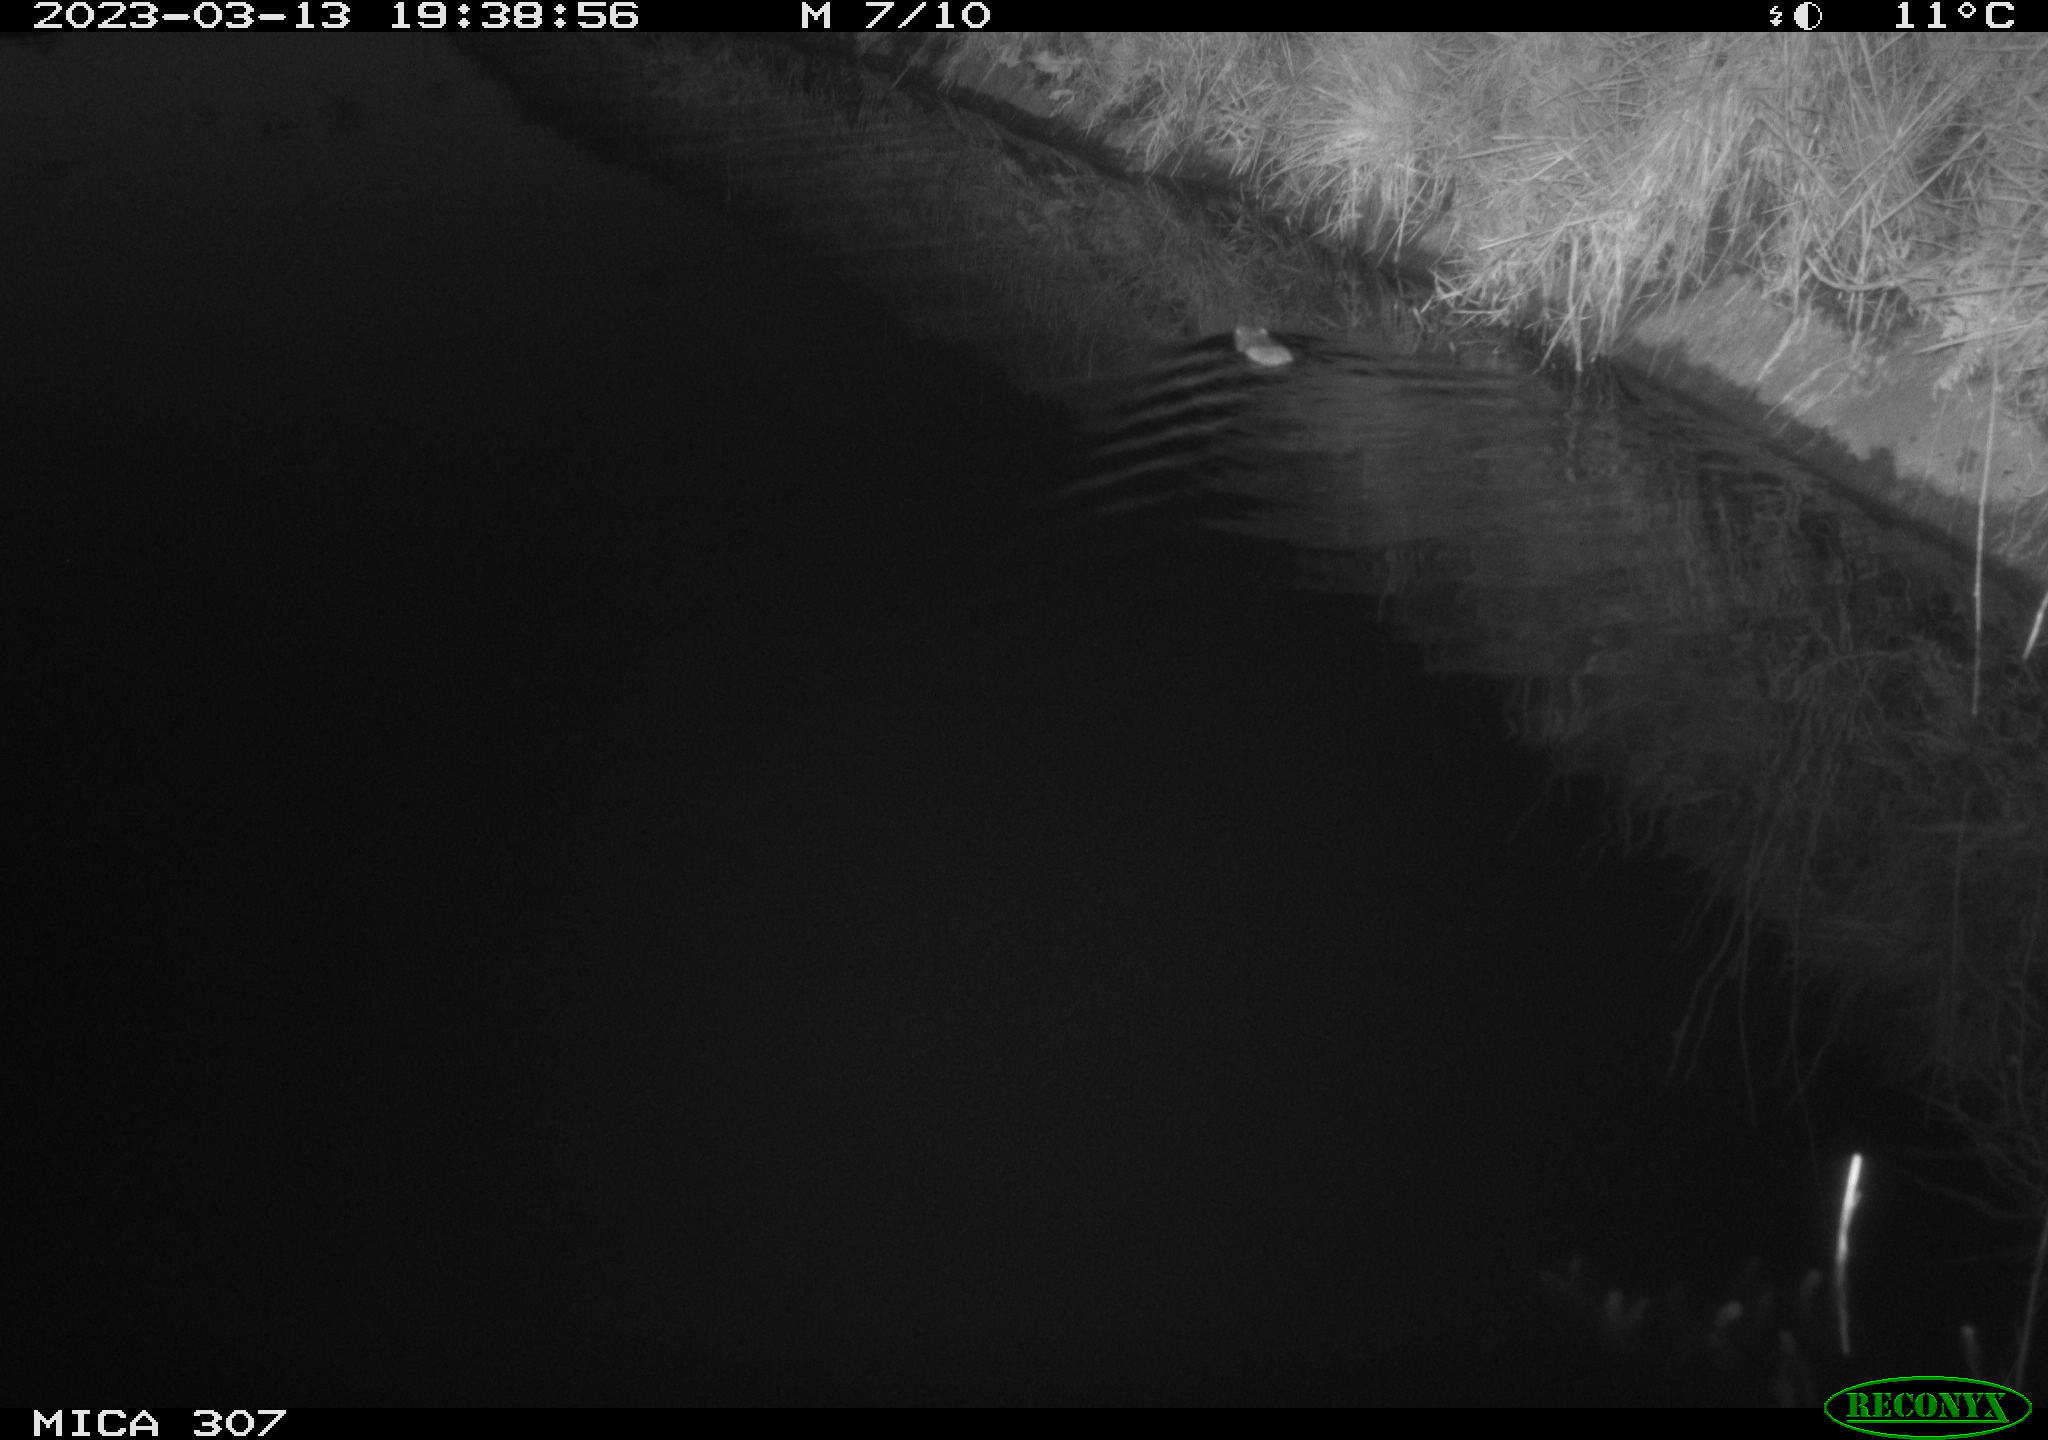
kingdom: Animalia
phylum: Chordata
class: Mammalia
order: Rodentia
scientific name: Rodentia
